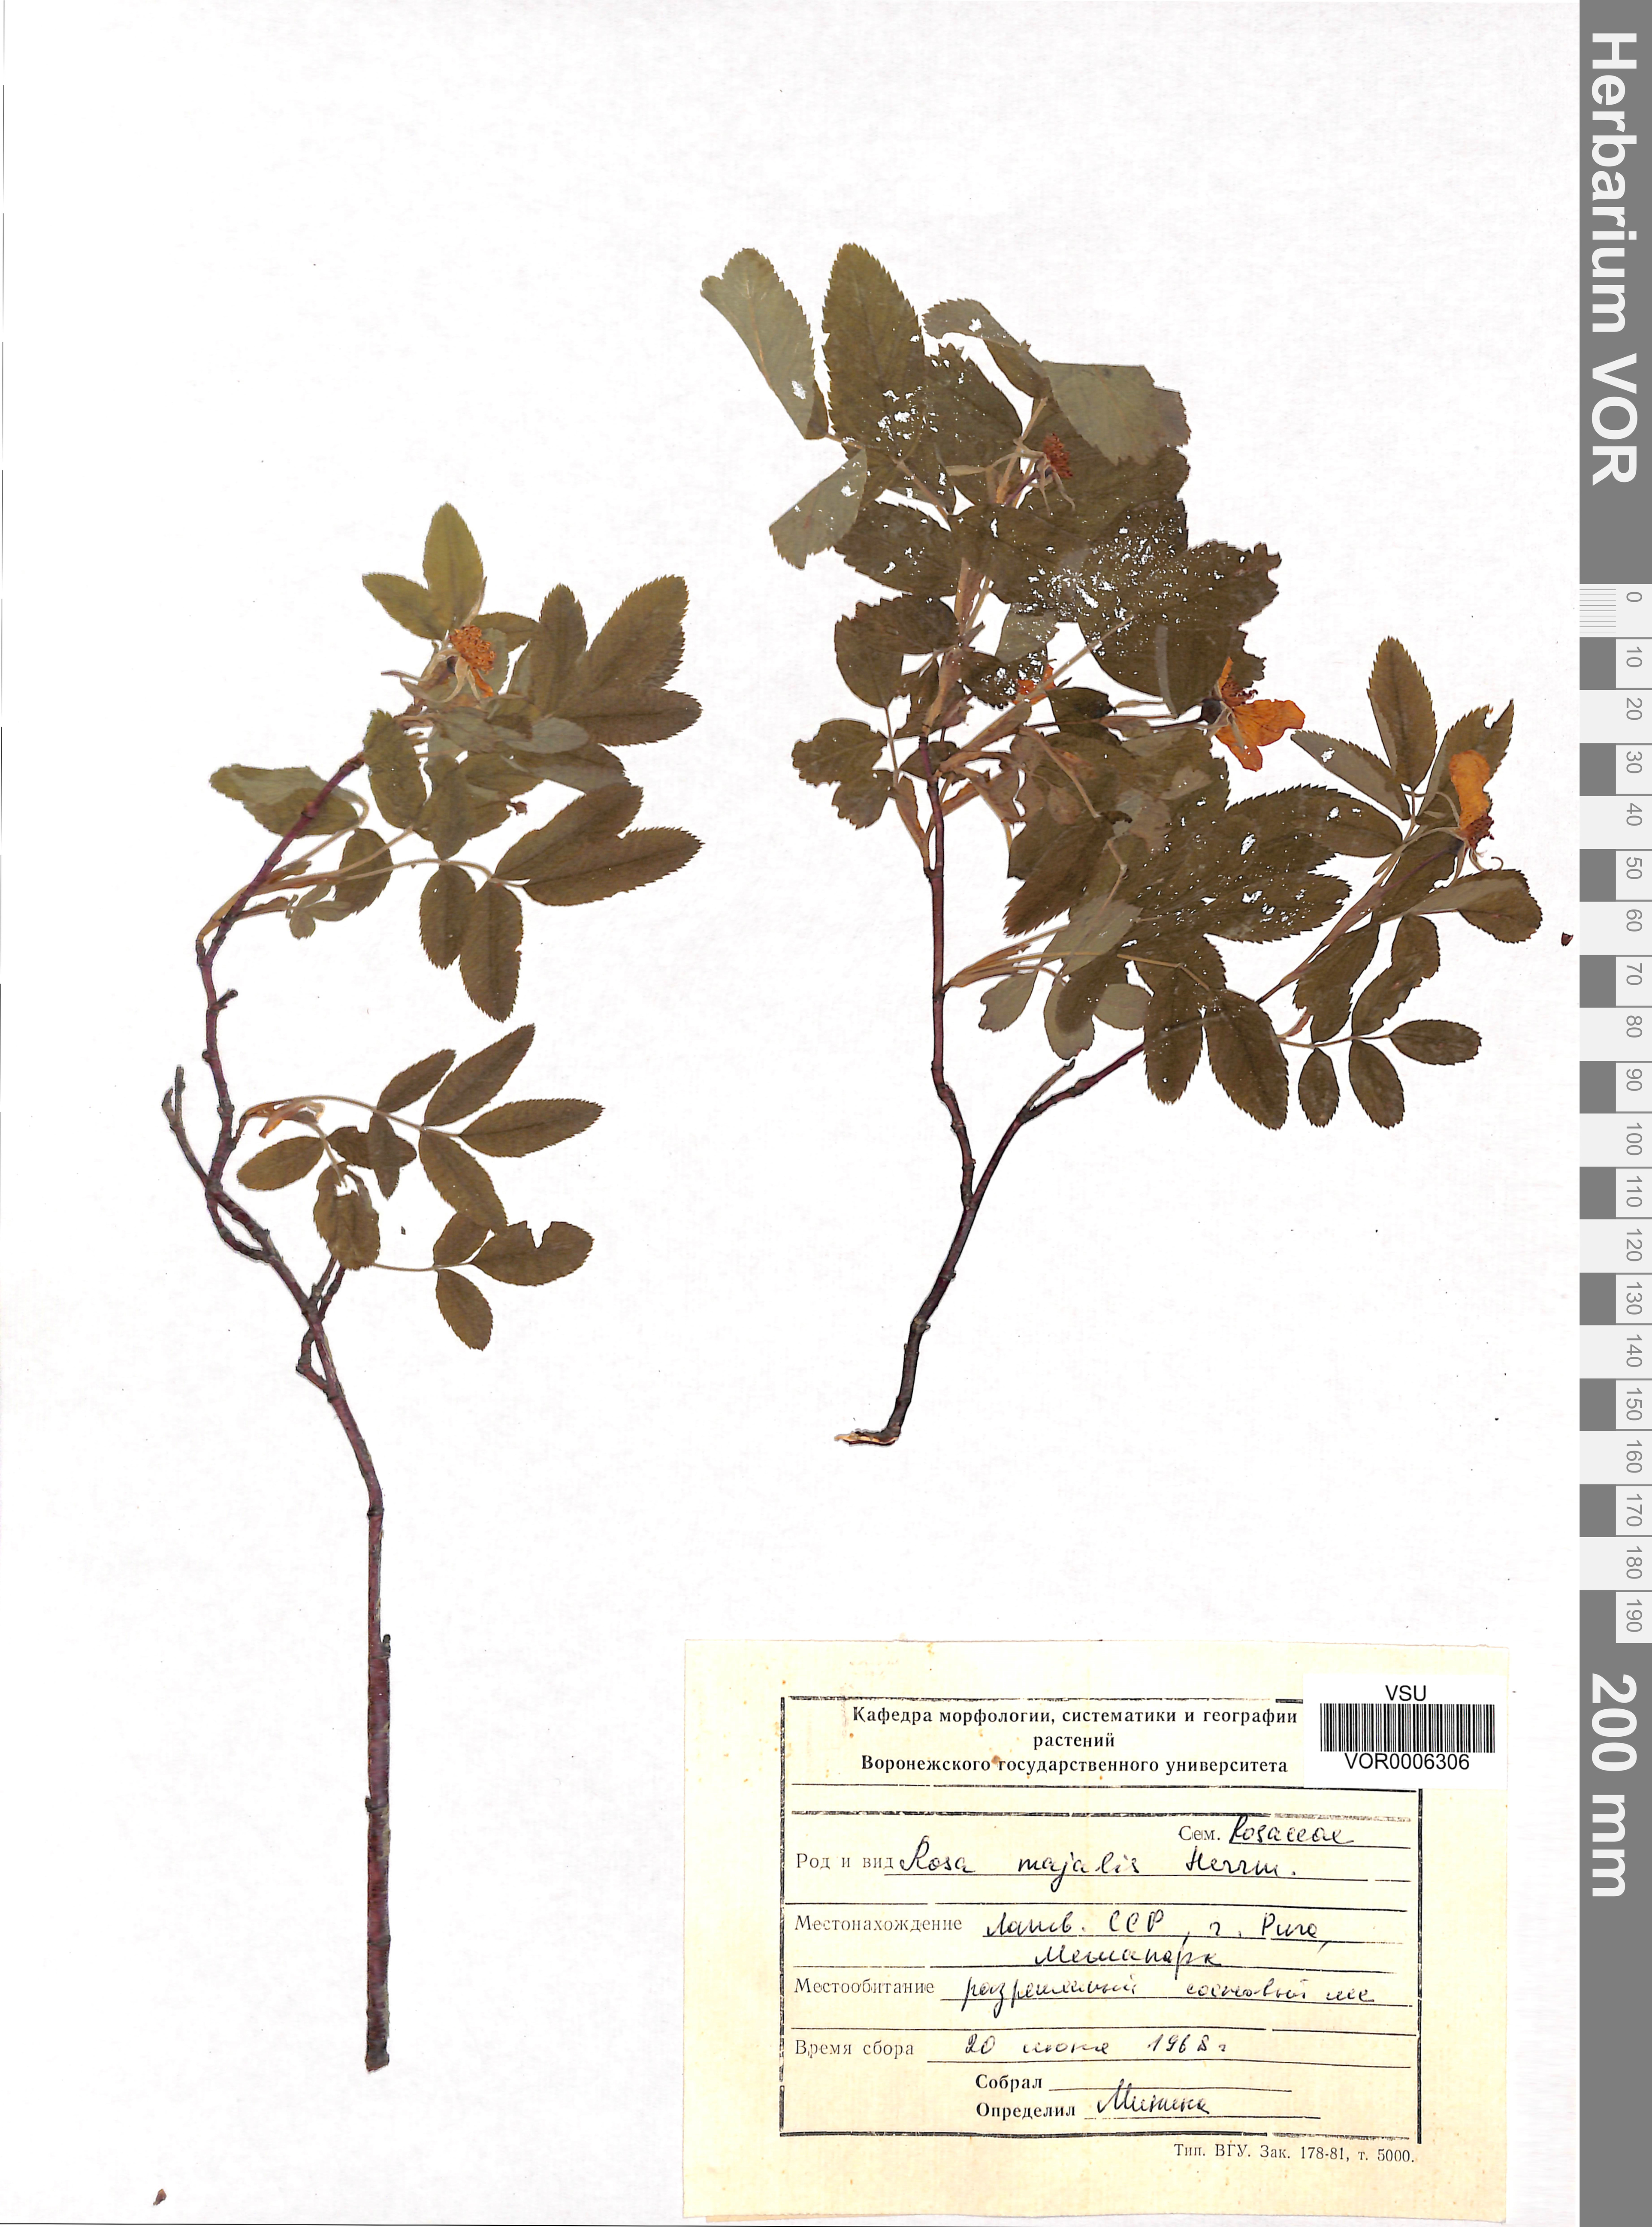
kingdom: Plantae
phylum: Tracheophyta
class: Magnoliopsida
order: Rosales
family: Rosaceae
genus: Rosa
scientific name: Rosa majalis
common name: Cinnamon rose
